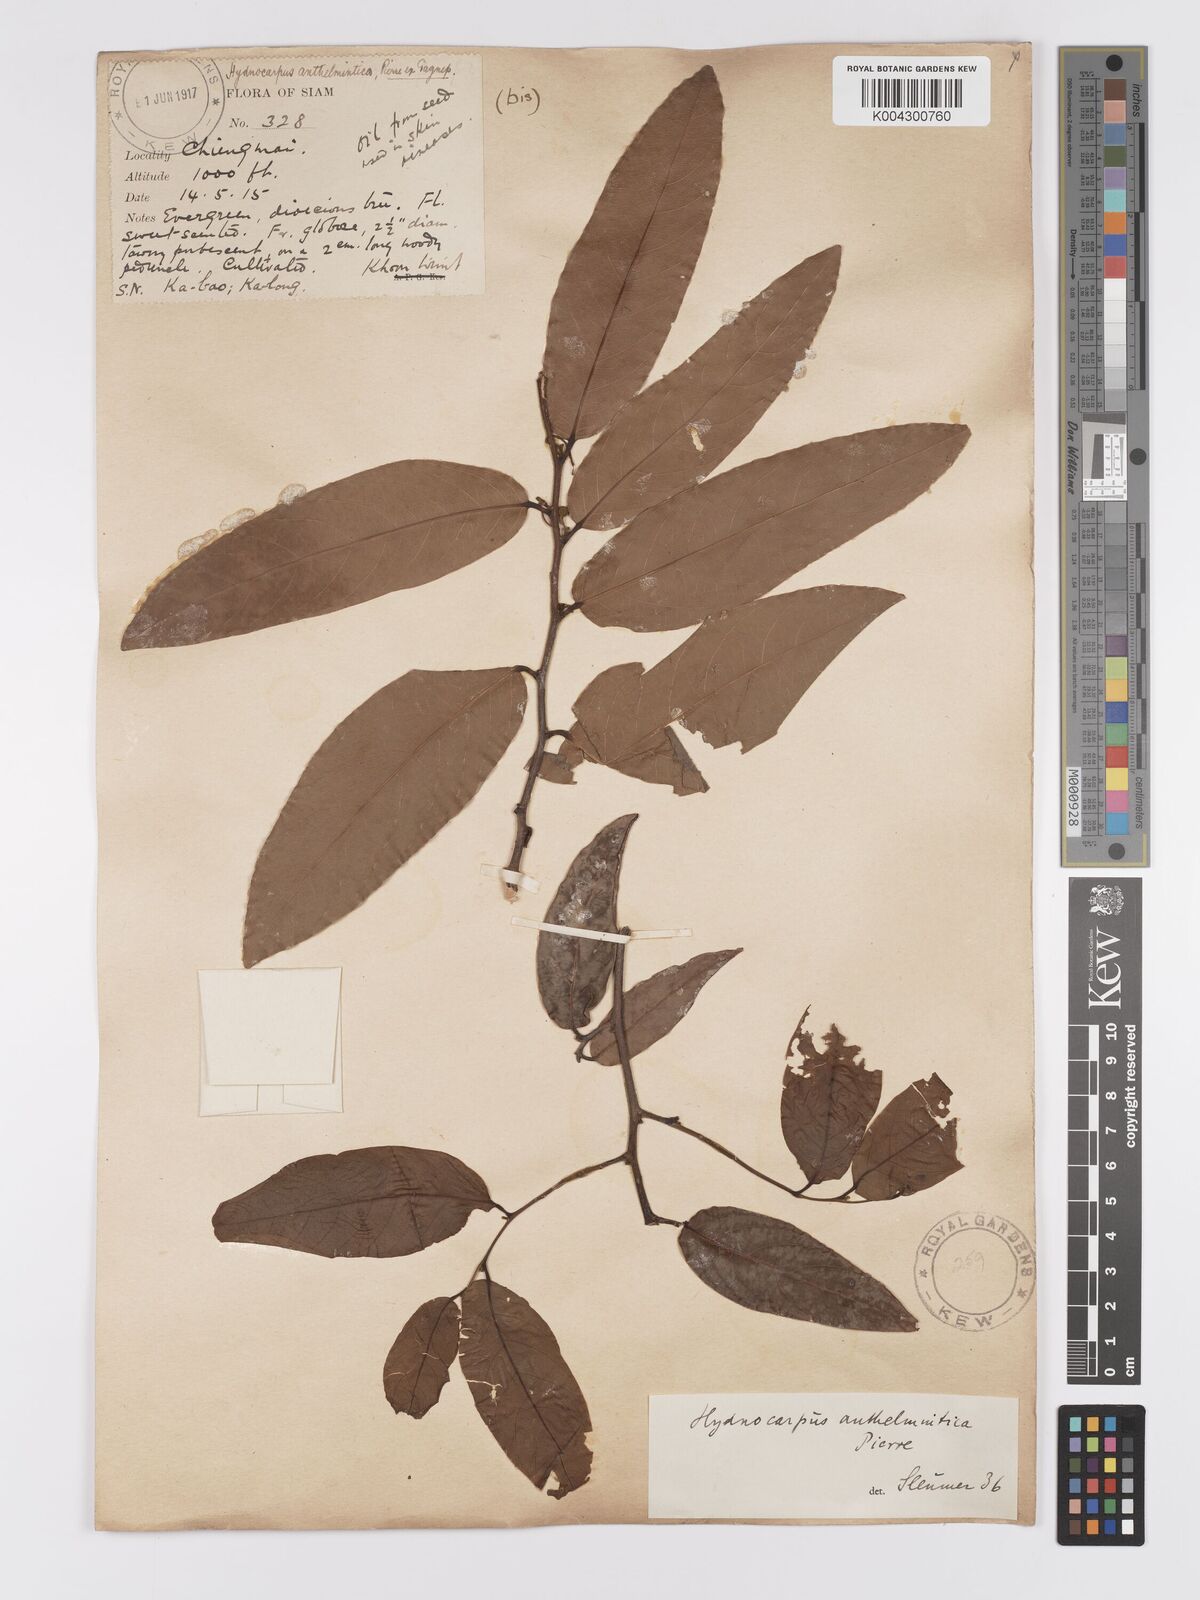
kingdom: Plantae
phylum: Tracheophyta
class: Magnoliopsida
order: Malpighiales
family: Achariaceae
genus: Hydnocarpus
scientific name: Hydnocarpus castaneus
